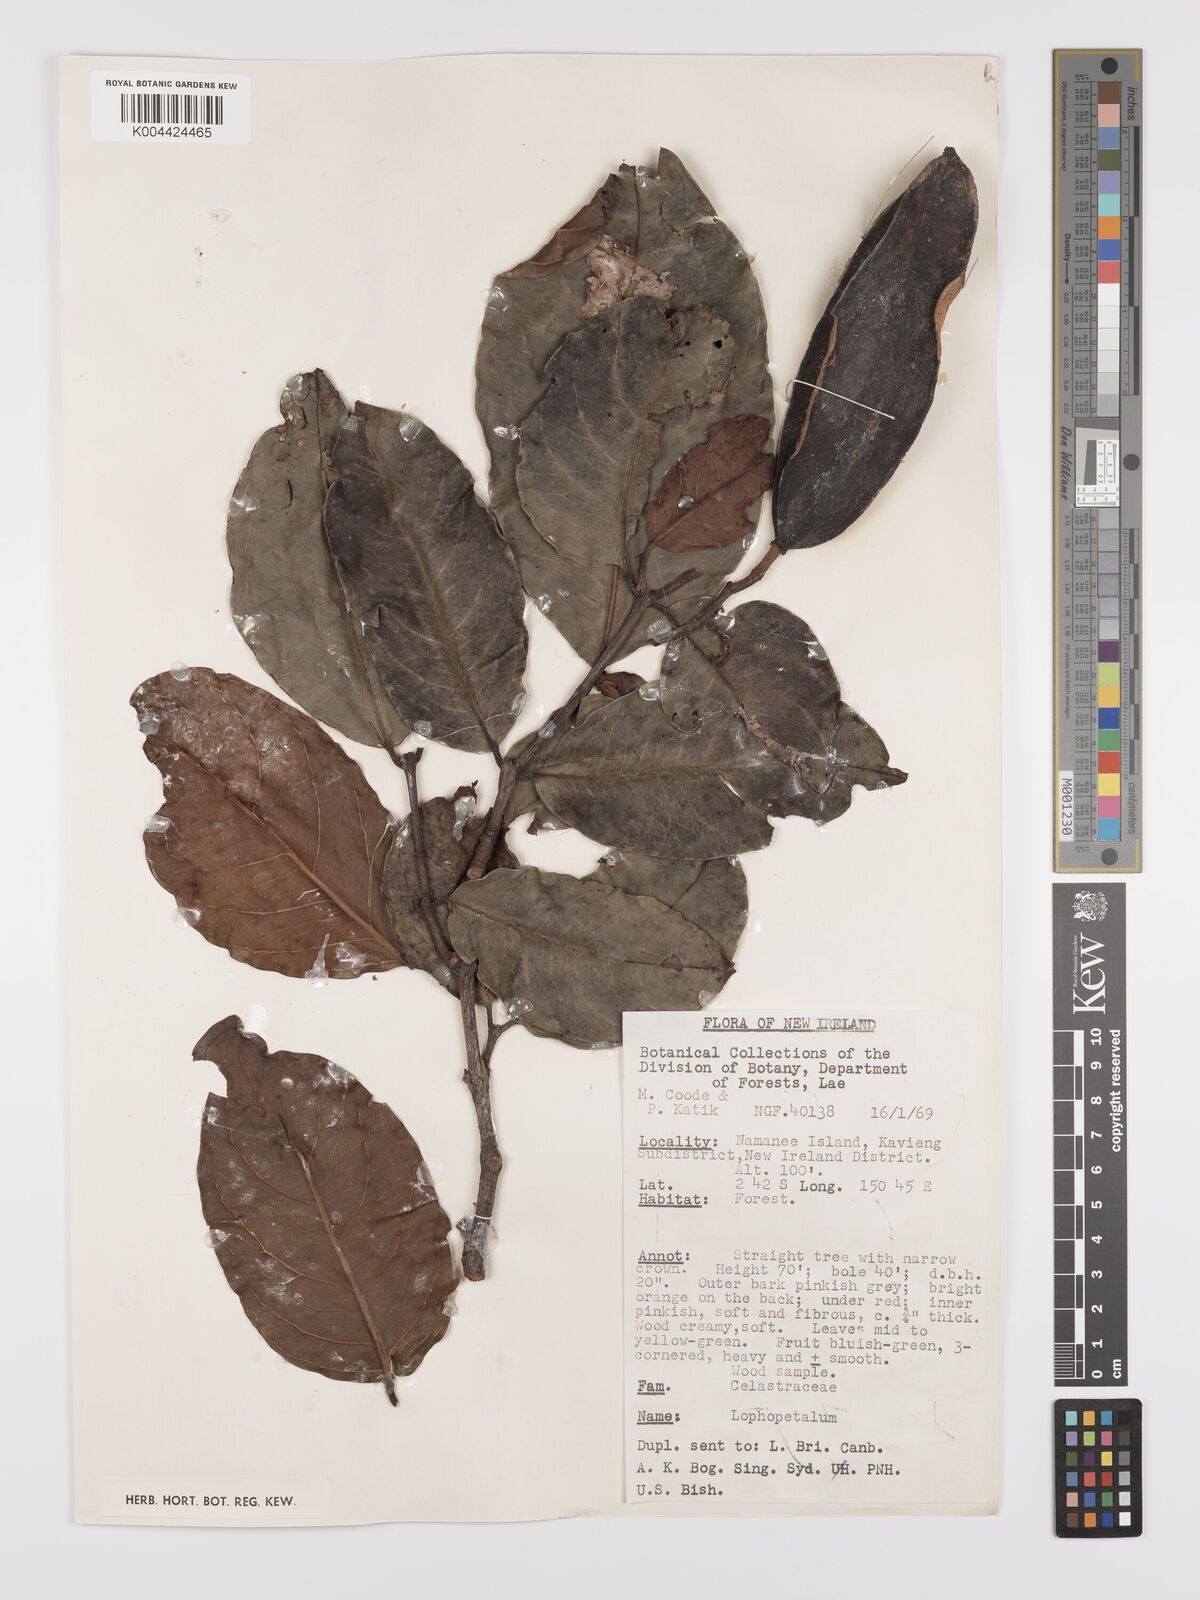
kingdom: Plantae
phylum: Tracheophyta
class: Magnoliopsida
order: Celastrales
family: Celastraceae
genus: Lophopetalum
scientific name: Lophopetalum
